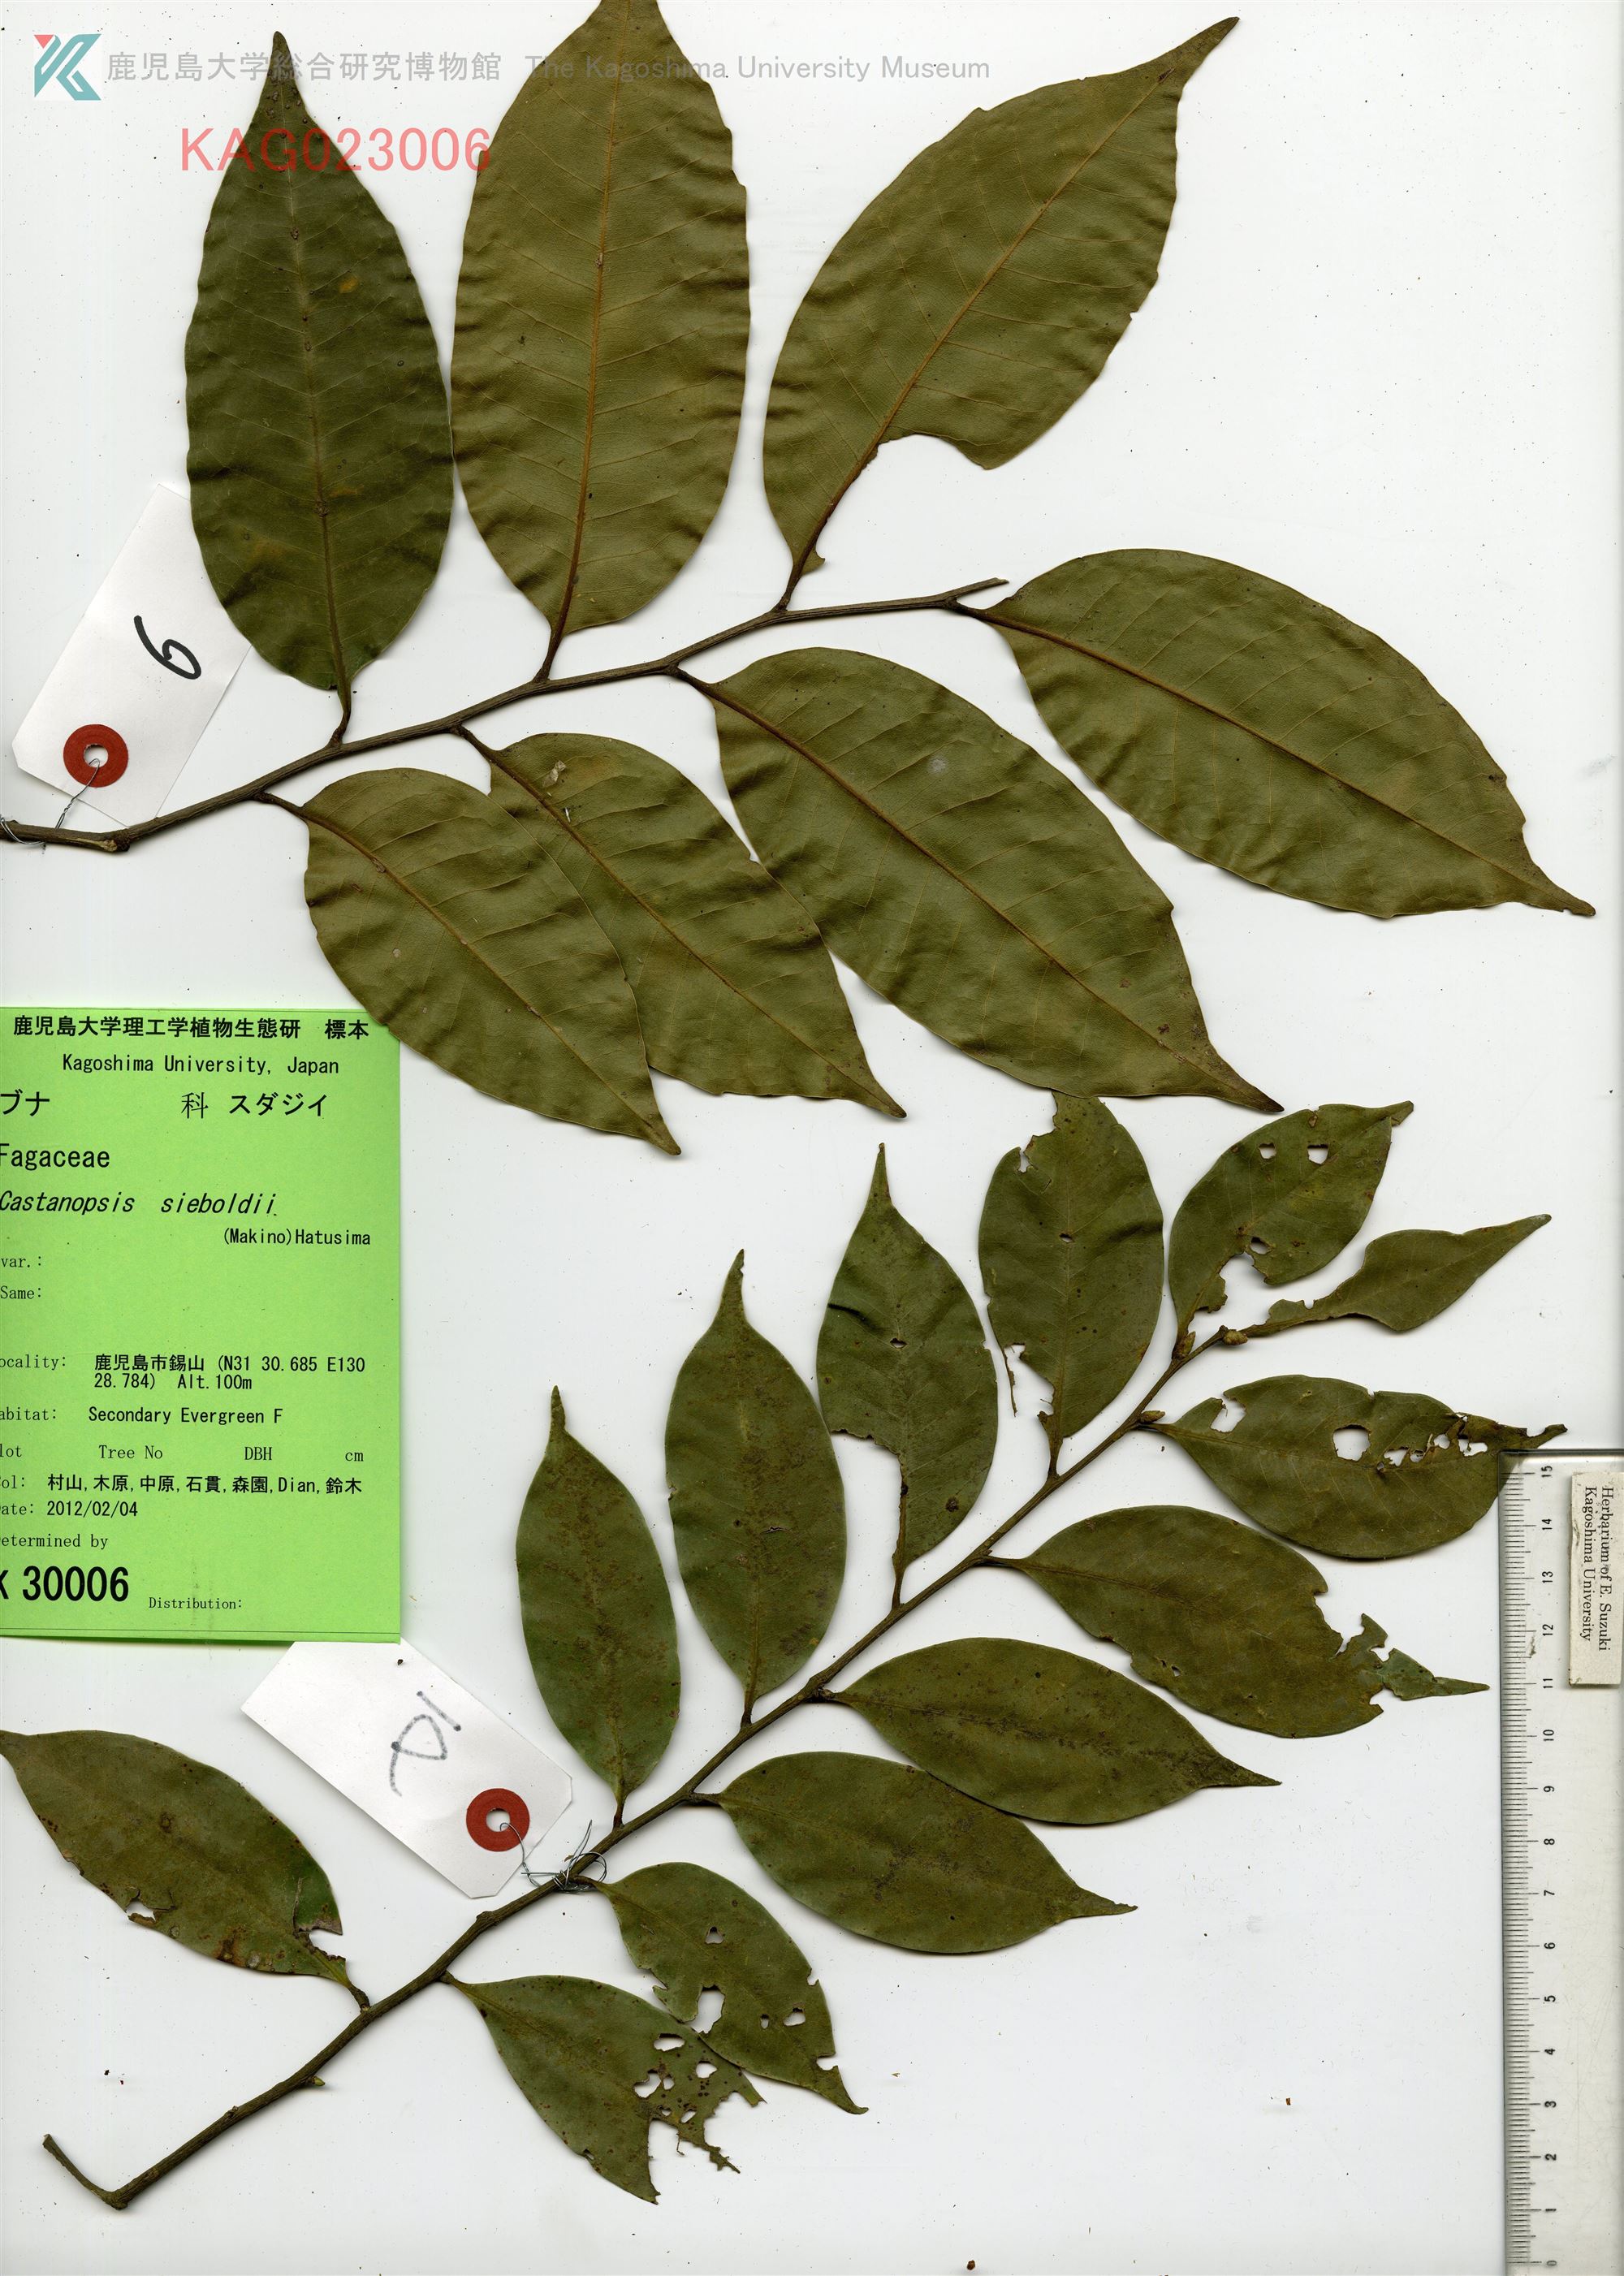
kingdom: Plantae
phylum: Tracheophyta
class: Magnoliopsida
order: Fagales
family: Fagaceae
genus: Castanopsis
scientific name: Castanopsis sieboldii
